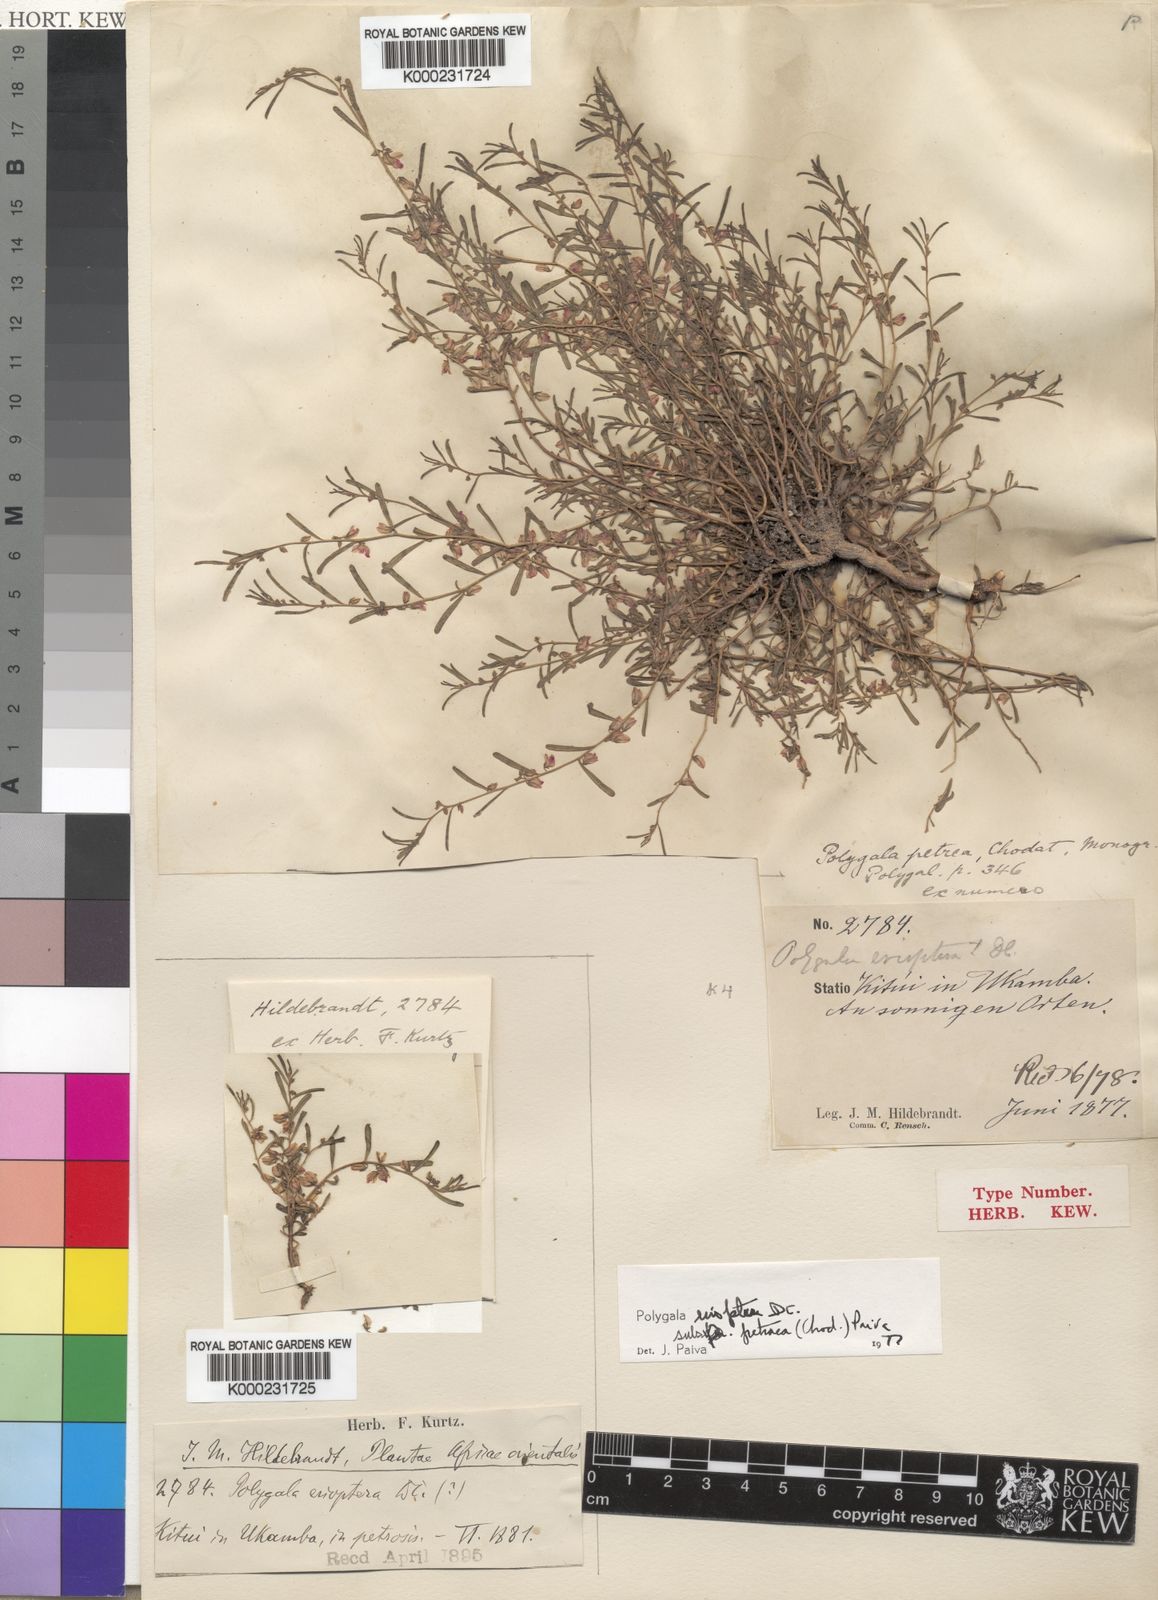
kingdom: Plantae
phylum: Tracheophyta
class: Magnoliopsida
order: Fabales
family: Polygalaceae
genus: Polygala
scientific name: Polygala erioptera
